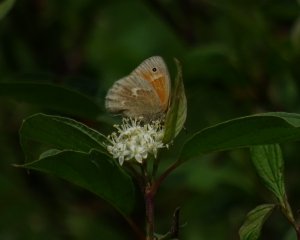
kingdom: Animalia
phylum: Arthropoda
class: Insecta
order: Lepidoptera
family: Nymphalidae
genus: Coenonympha
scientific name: Coenonympha tullia
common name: Large Heath
